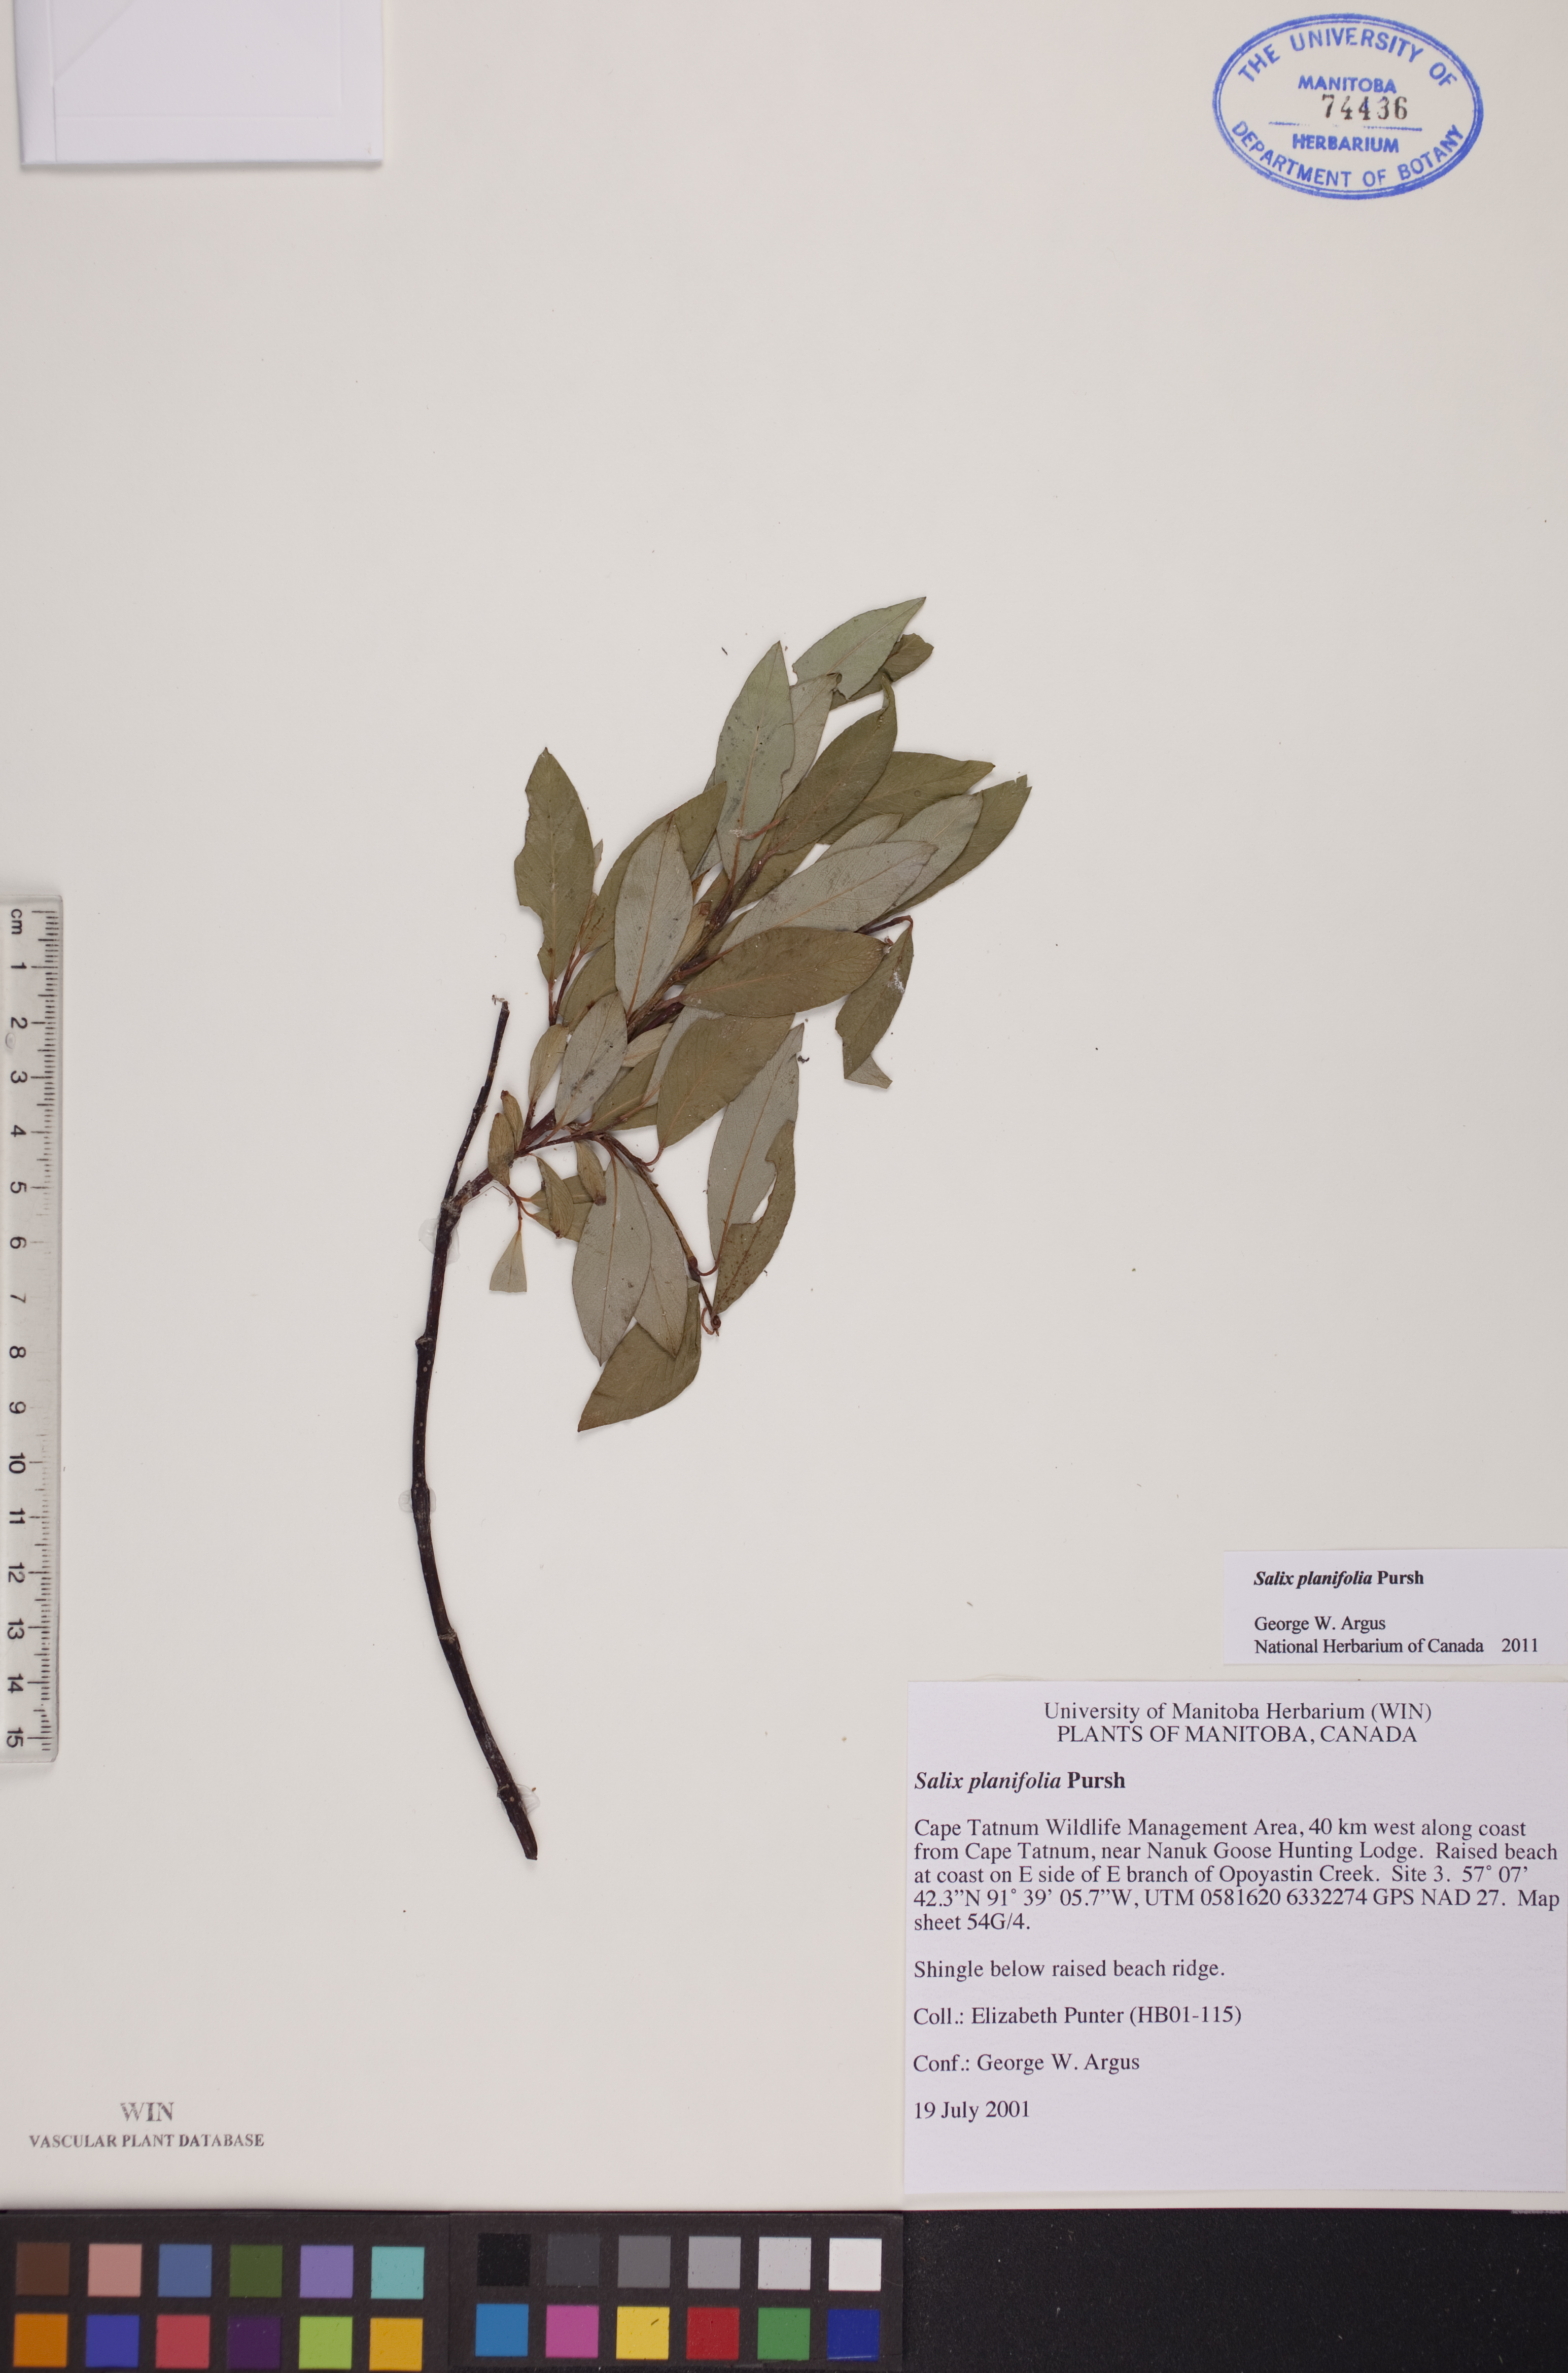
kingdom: Plantae
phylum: Tracheophyta
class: Magnoliopsida
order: Malpighiales
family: Salicaceae
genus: Salix
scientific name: Salix planifolia
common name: Mountain willow
